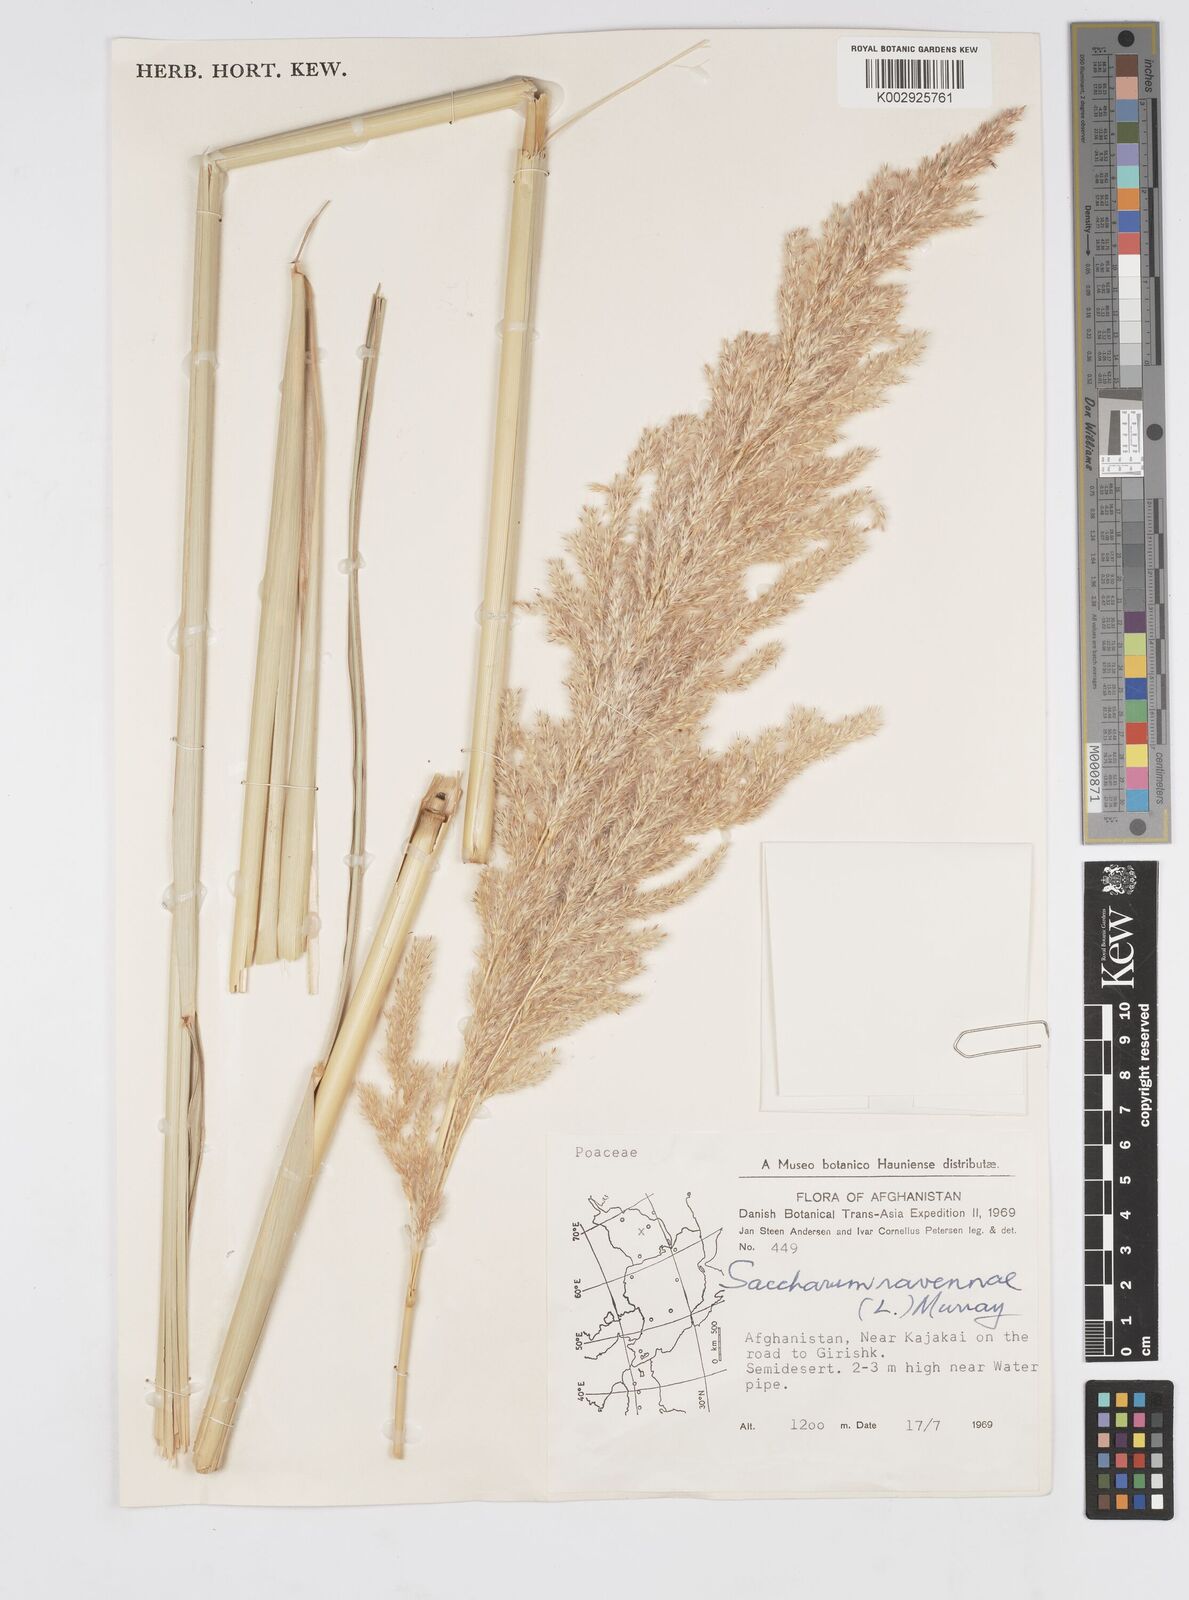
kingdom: Plantae
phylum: Tracheophyta
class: Liliopsida
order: Poales
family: Poaceae
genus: Tripidium
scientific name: Tripidium ravennae
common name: Ravenna grass
